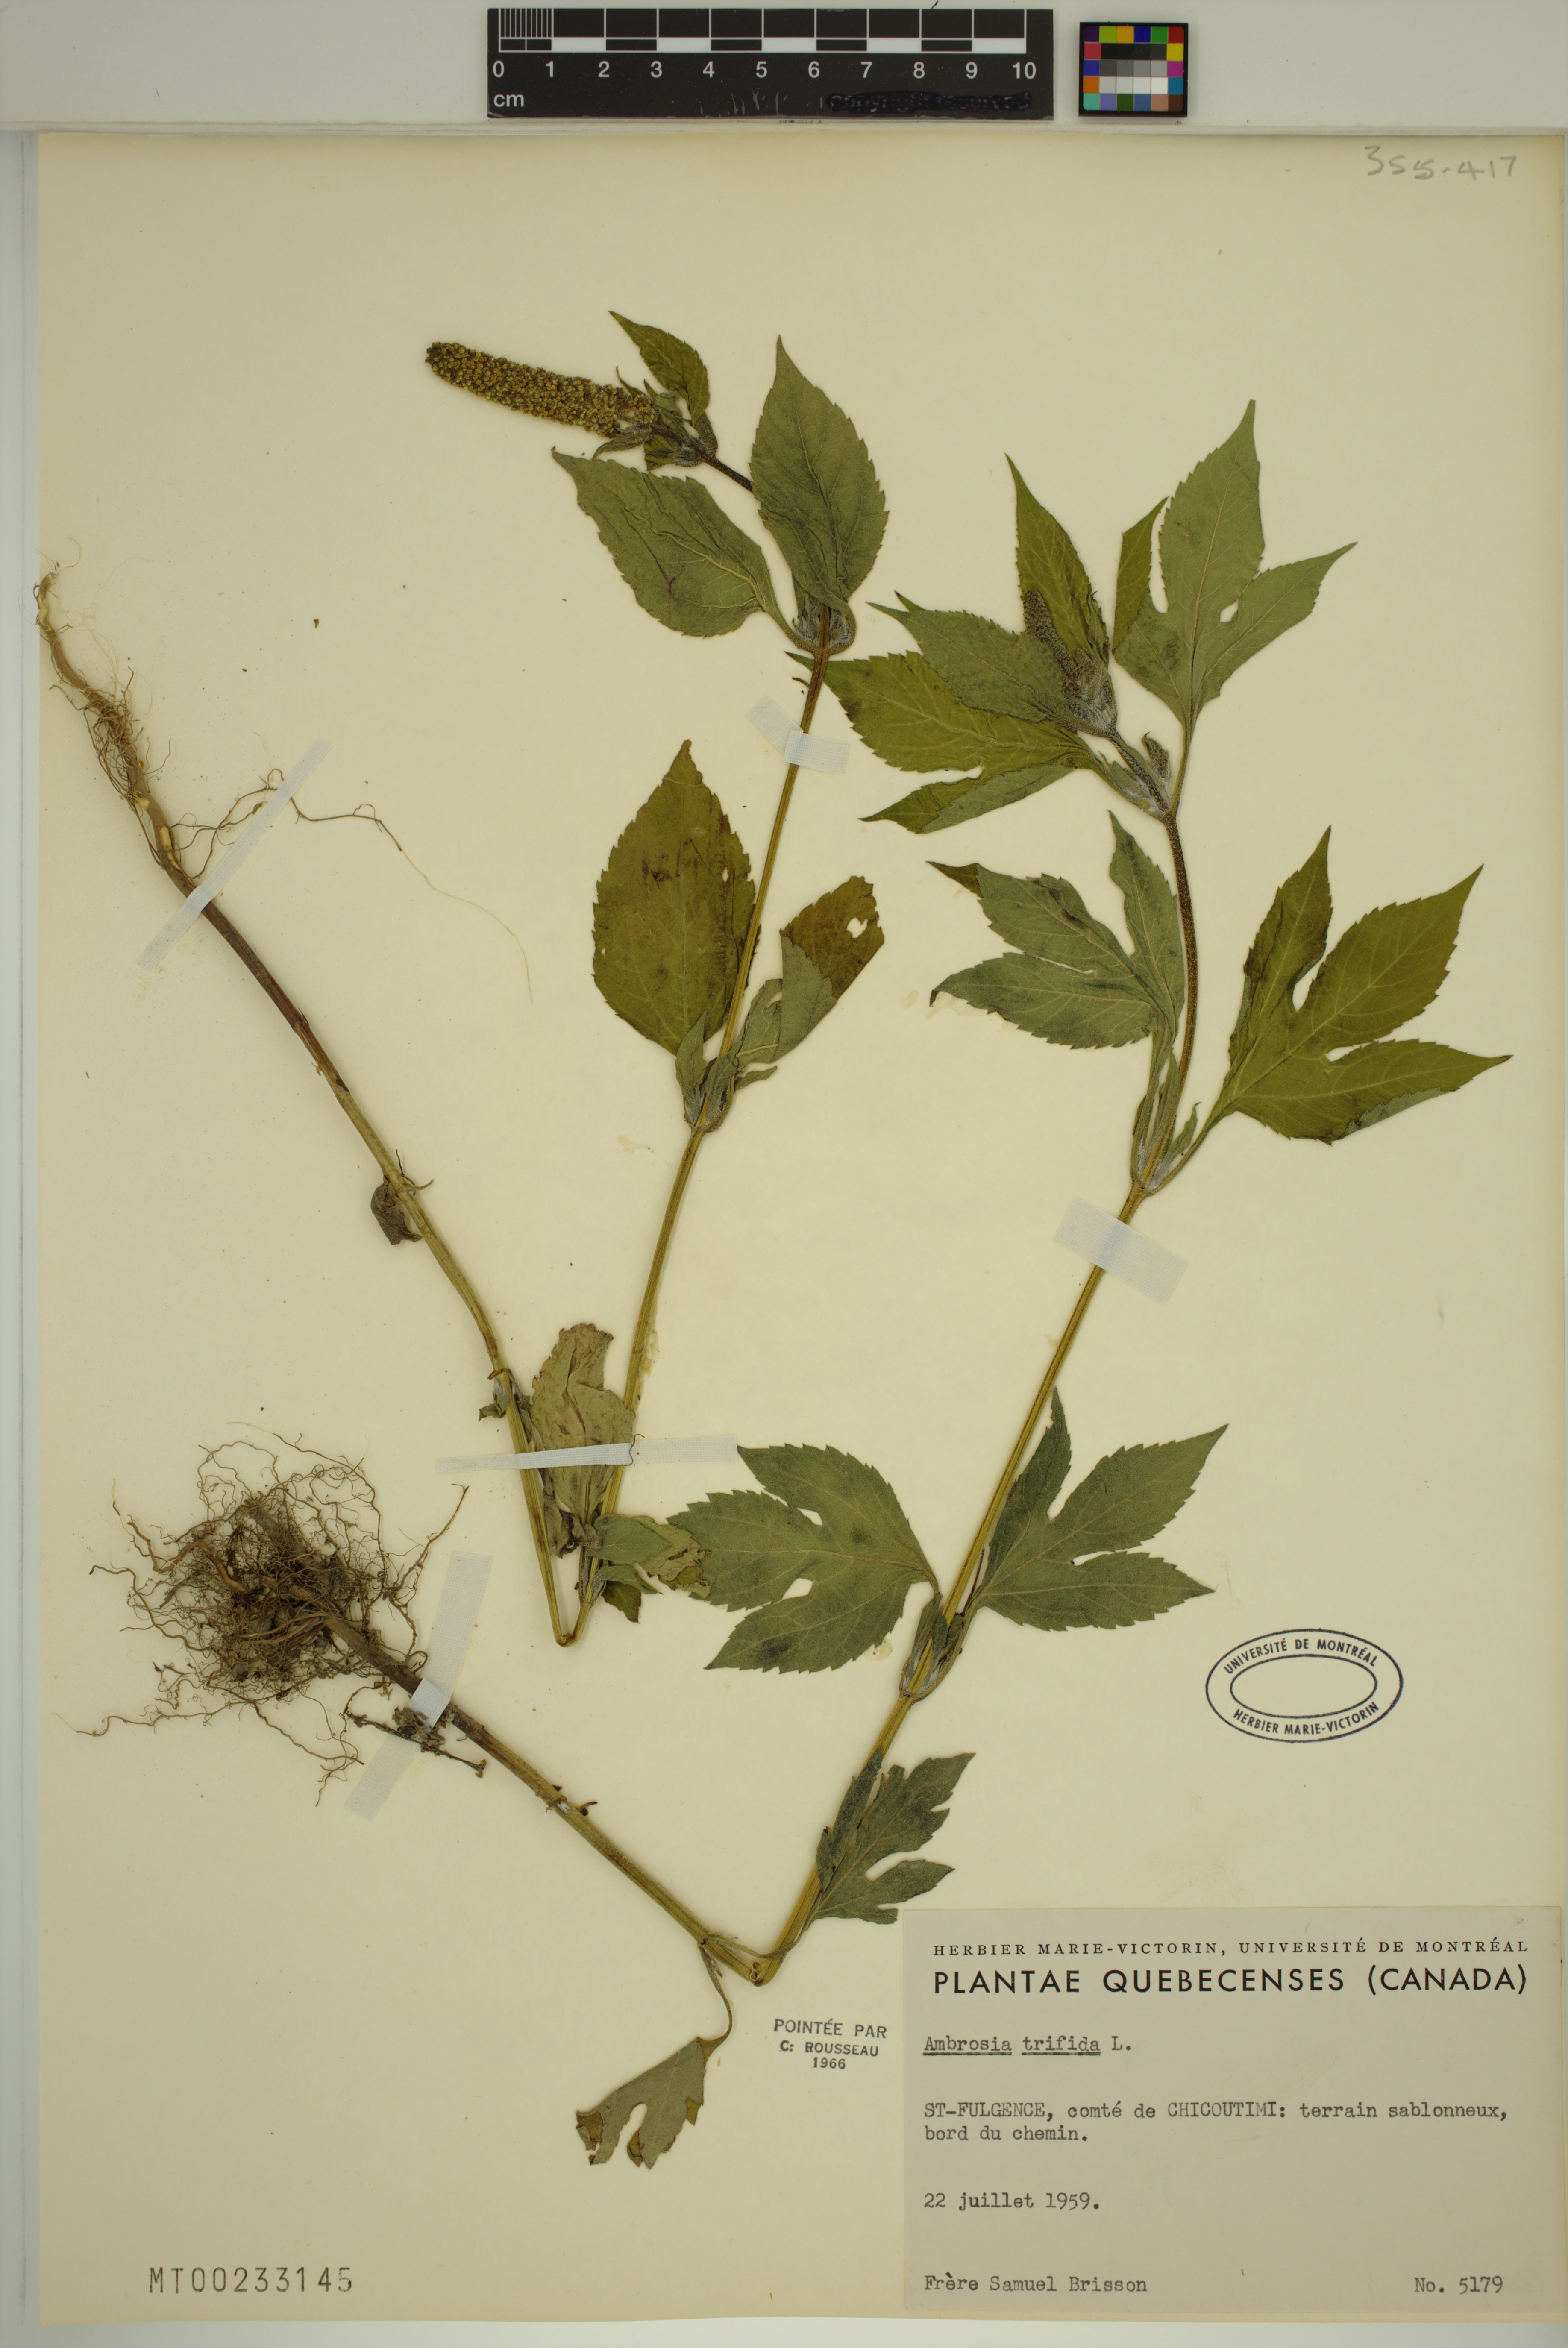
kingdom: Plantae
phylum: Tracheophyta
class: Magnoliopsida
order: Asterales
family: Asteraceae
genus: Ambrosia
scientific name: Ambrosia trifida
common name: Giant ragweed
